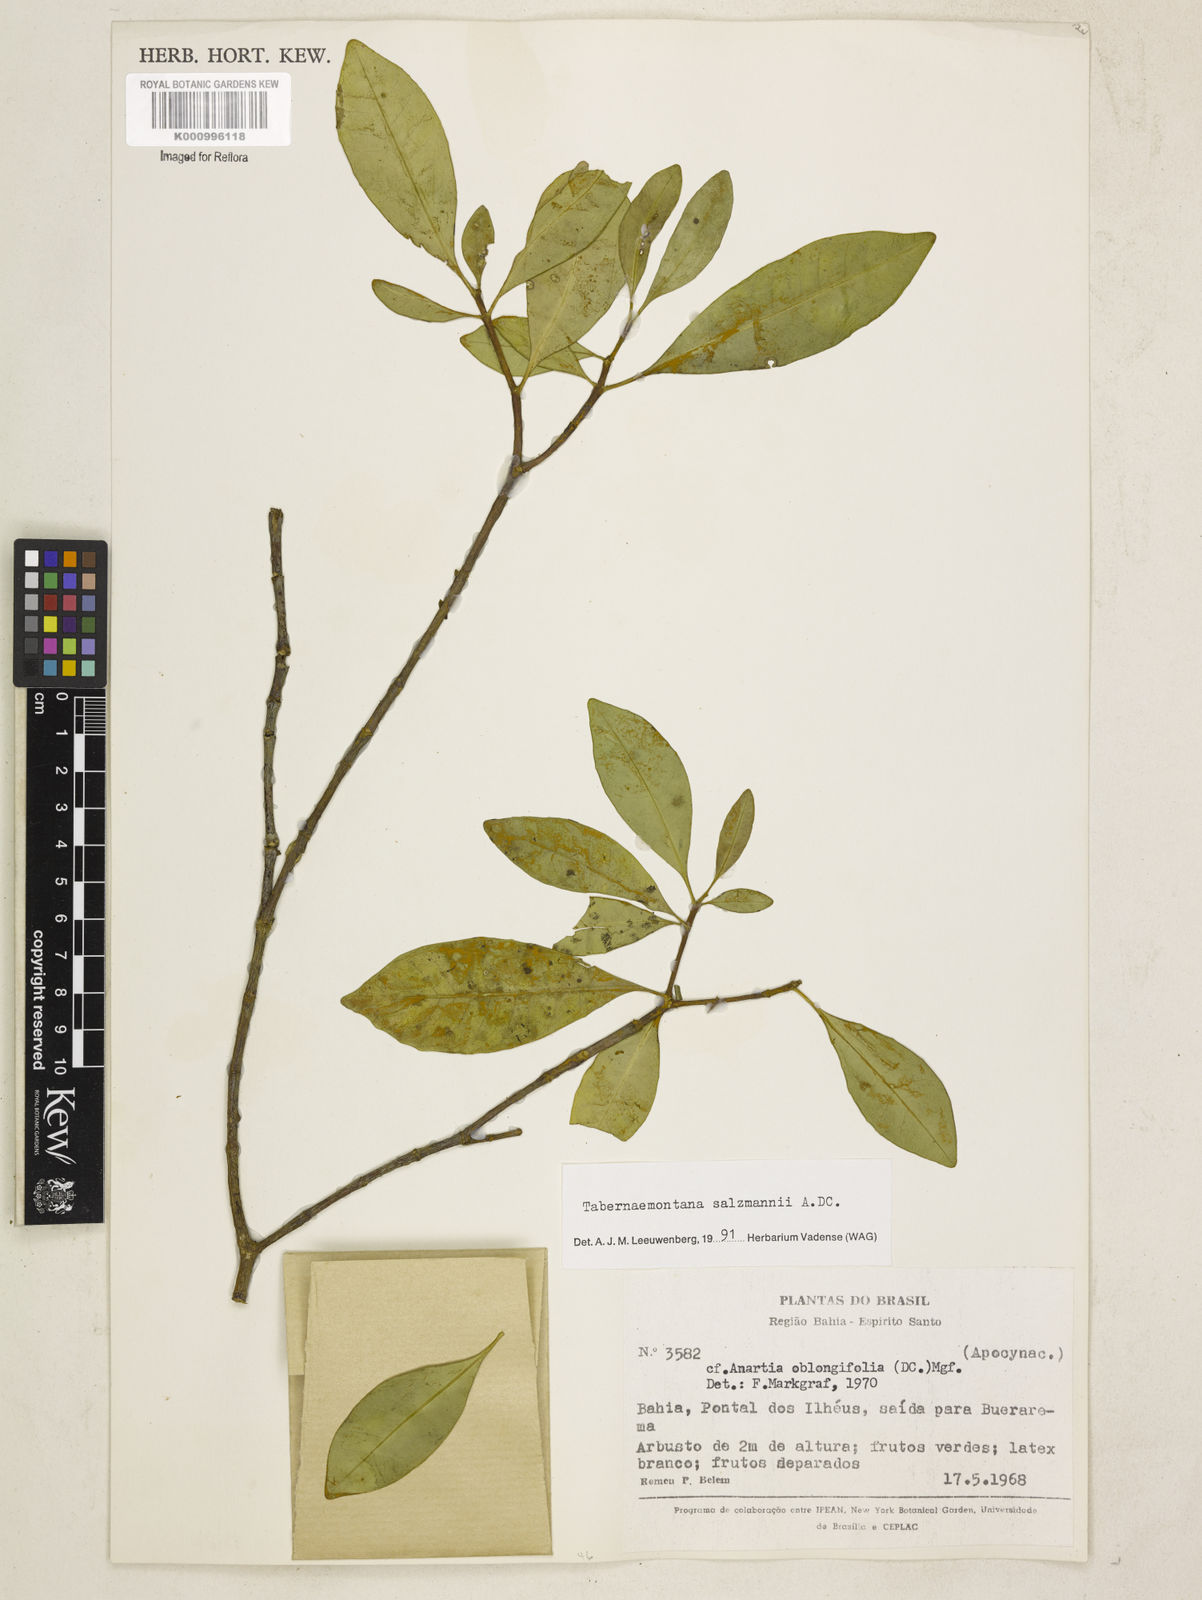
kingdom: Plantae
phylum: Tracheophyta
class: Magnoliopsida
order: Gentianales
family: Apocynaceae
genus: Tabernaemontana
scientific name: Tabernaemontana salzmannii
